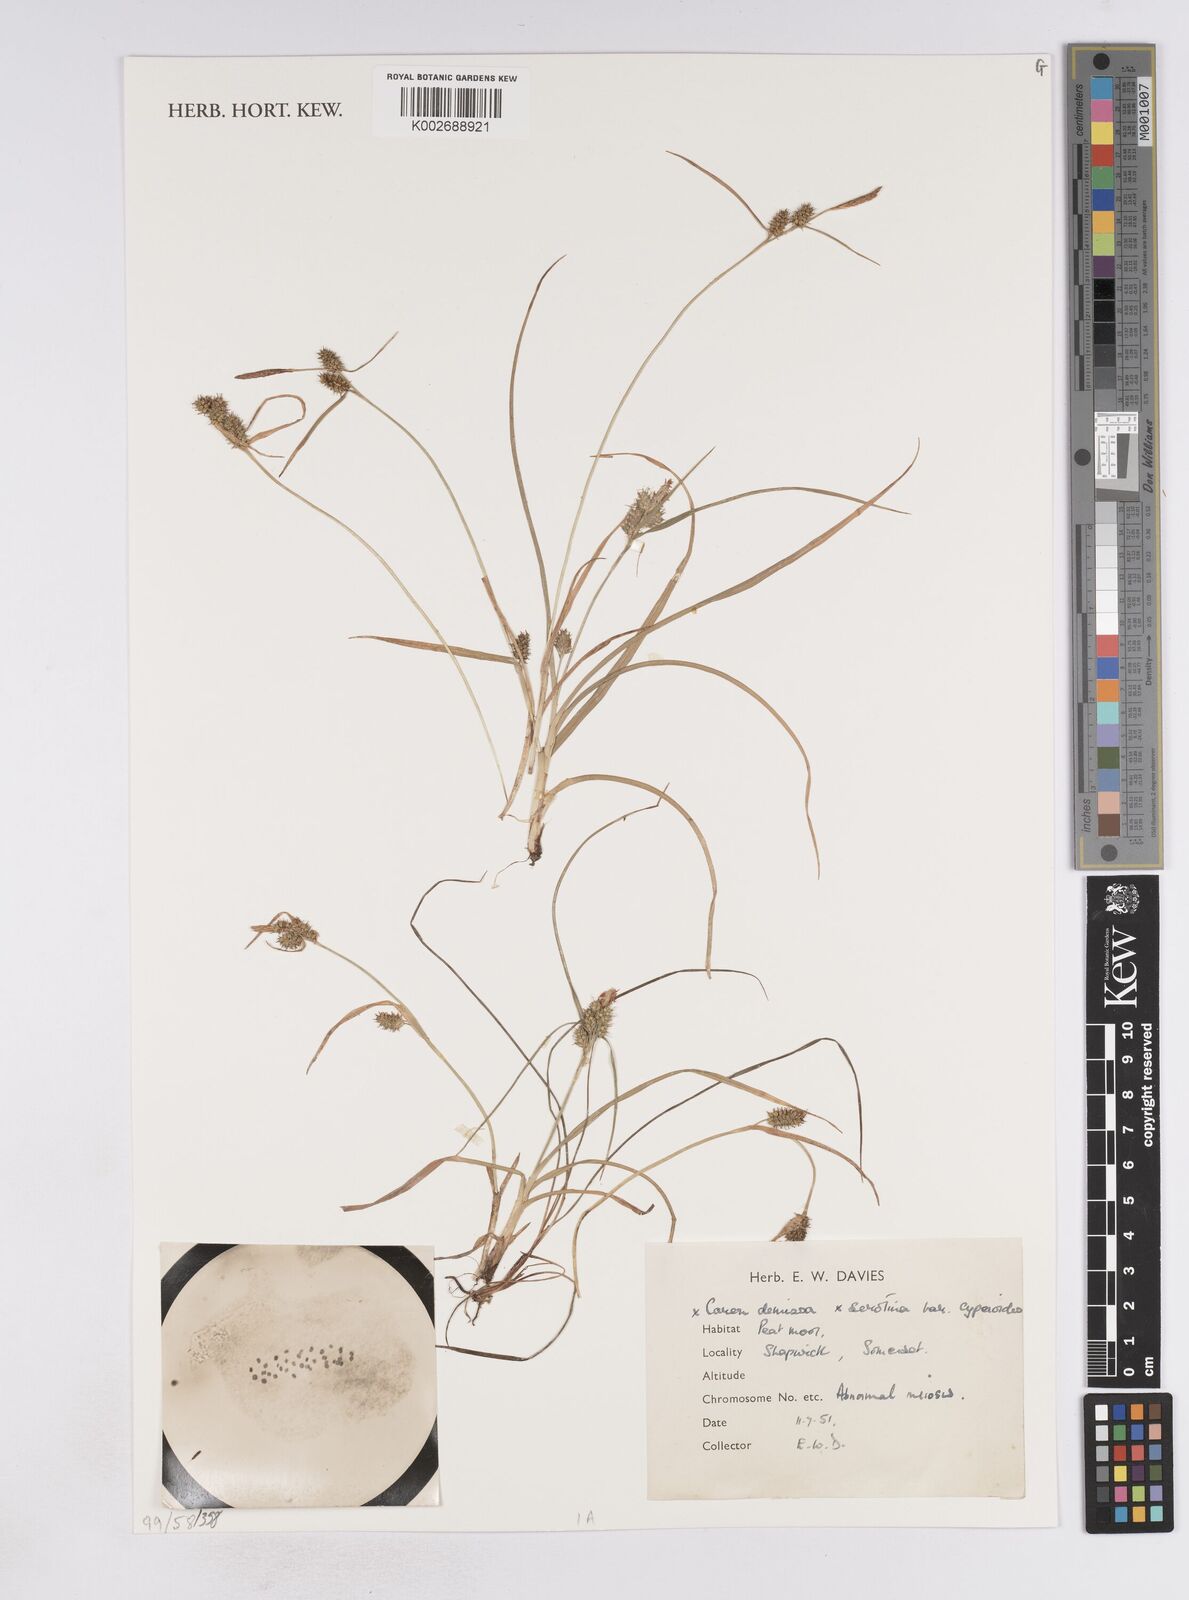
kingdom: Plantae
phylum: Tracheophyta
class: Liliopsida
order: Poales
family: Cyperaceae
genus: Carex
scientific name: Carex demissa
